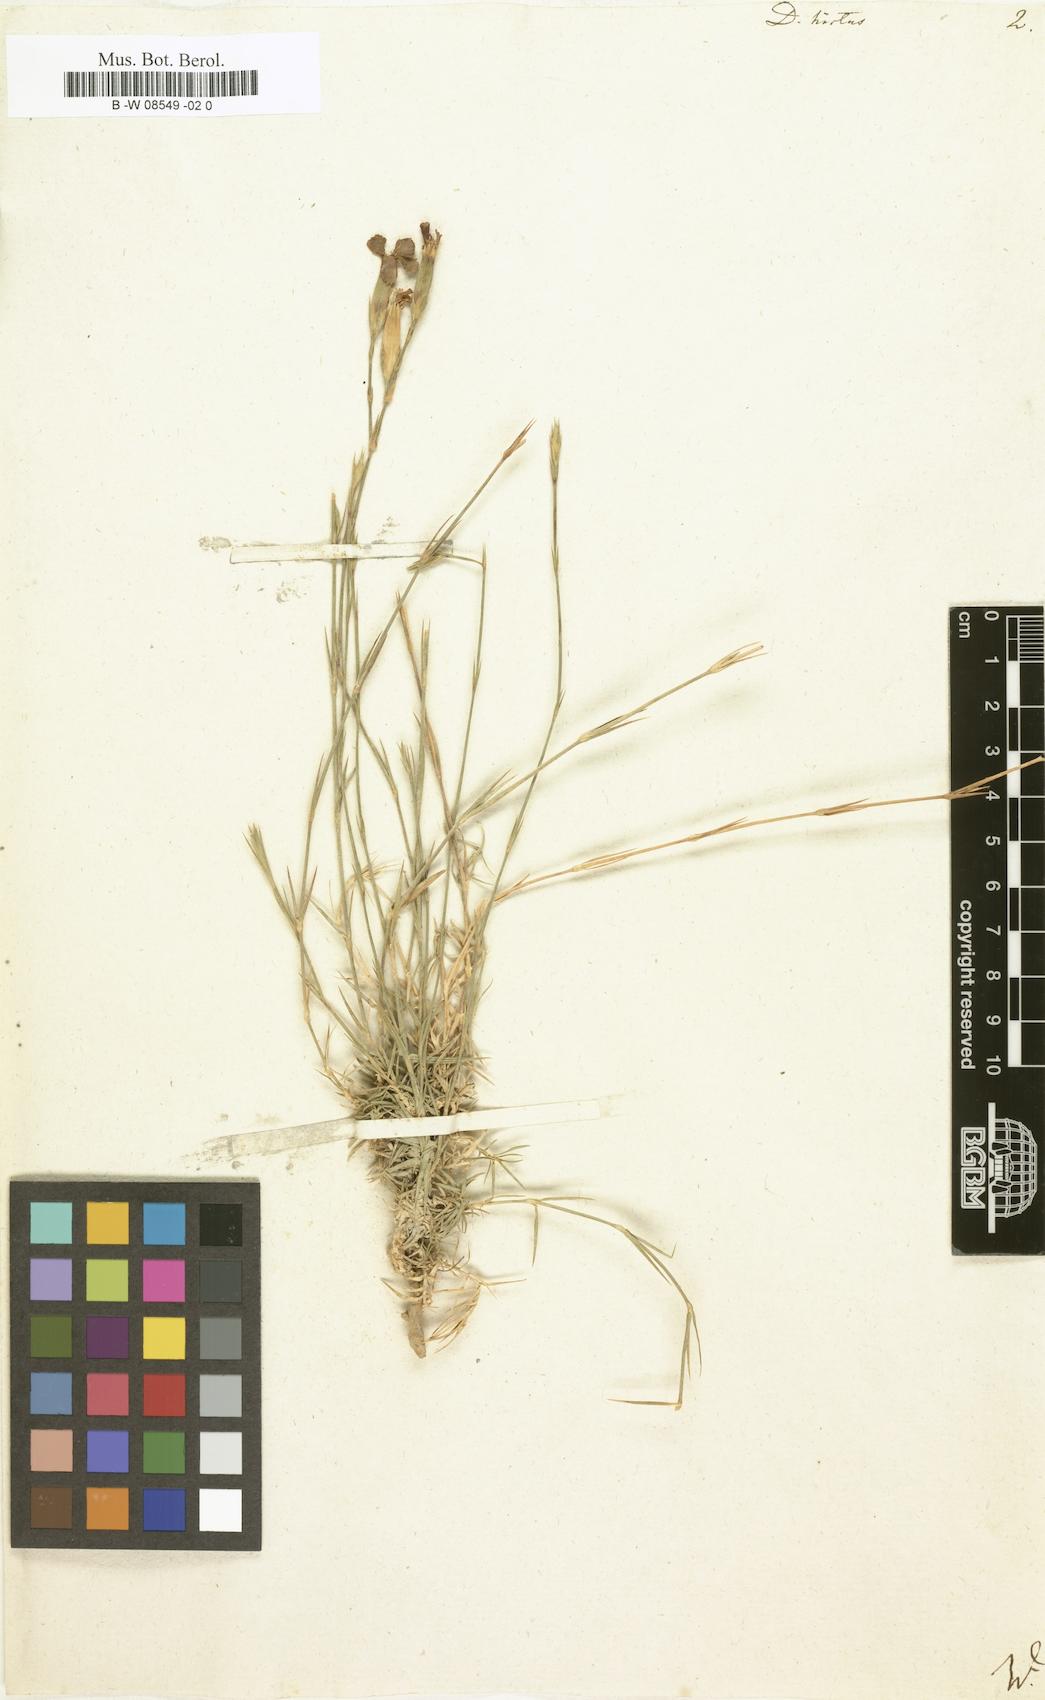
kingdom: Plantae
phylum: Tracheophyta
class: Magnoliopsida
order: Caryophyllales
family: Caryophyllaceae
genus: Dianthus
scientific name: Dianthus
